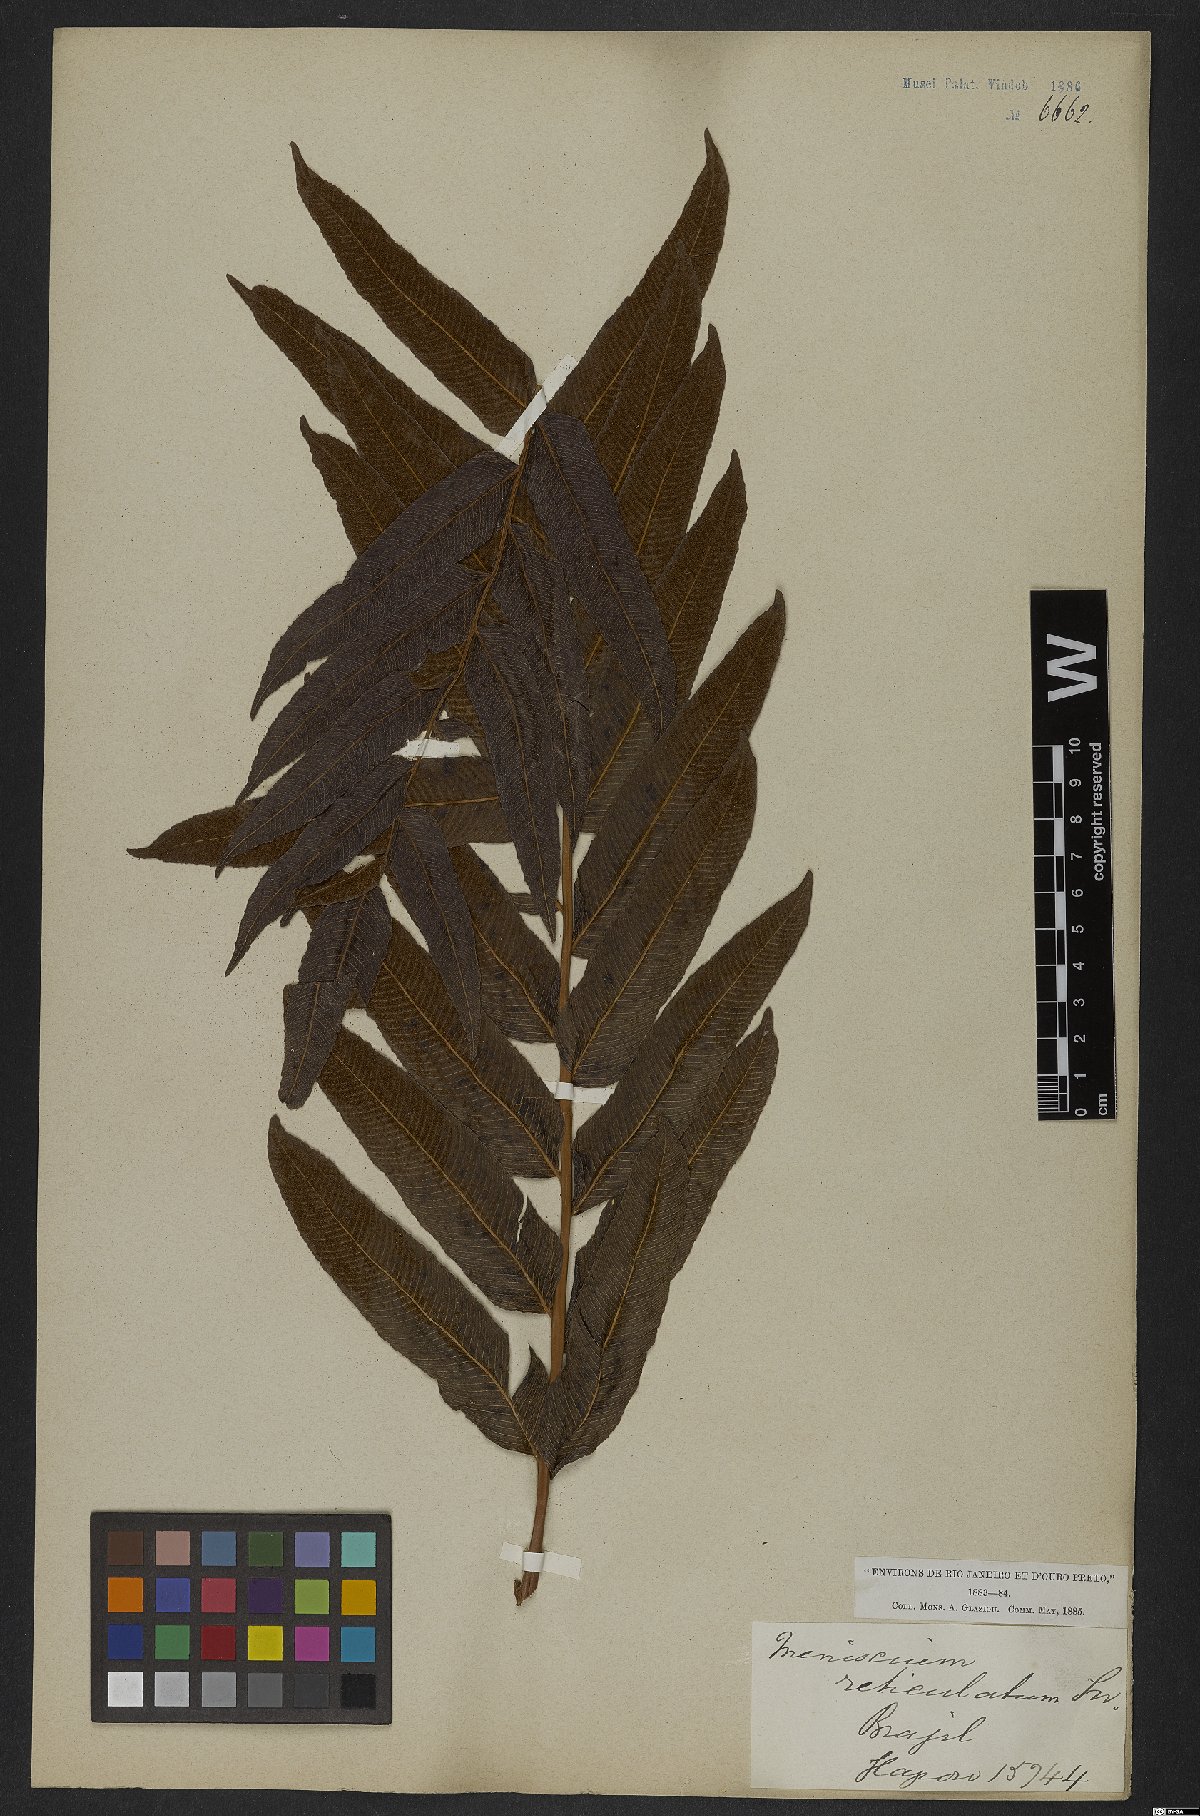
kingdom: Plantae
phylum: Tracheophyta
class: Polypodiopsida
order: Polypodiales
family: Thelypteridaceae
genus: Meniscium
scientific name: Meniscium reticulatum
